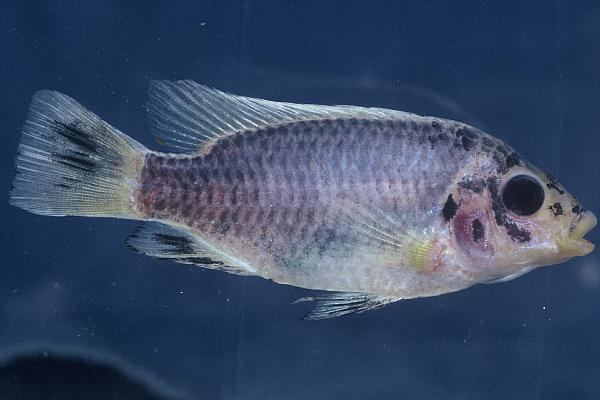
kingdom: Animalia
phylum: Chordata
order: Perciformes
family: Cichlidae
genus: Tilapia
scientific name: Tilapia guinasana
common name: Otjikoto tilapia
